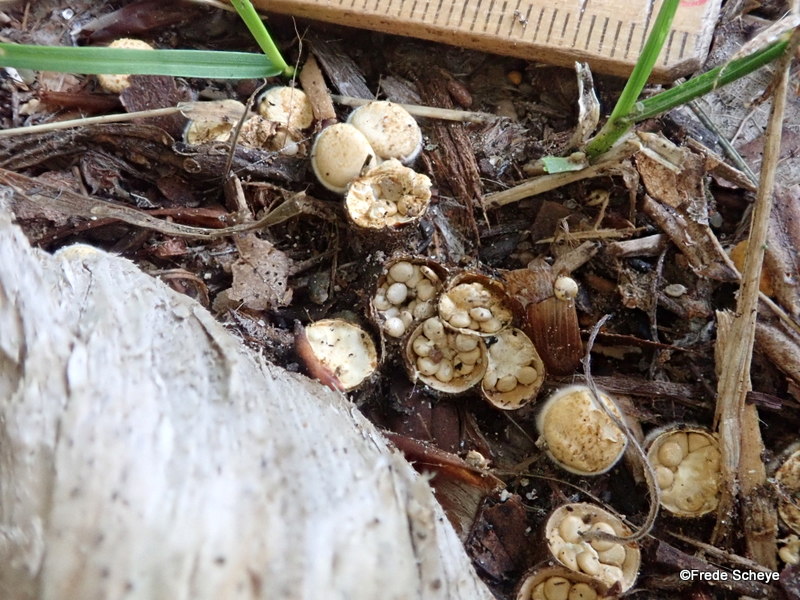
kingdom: Fungi
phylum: Basidiomycota
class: Agaricomycetes
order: Agaricales
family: Nidulariaceae
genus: Crucibulum
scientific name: Crucibulum crucibuliforme
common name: krukkesvamp
